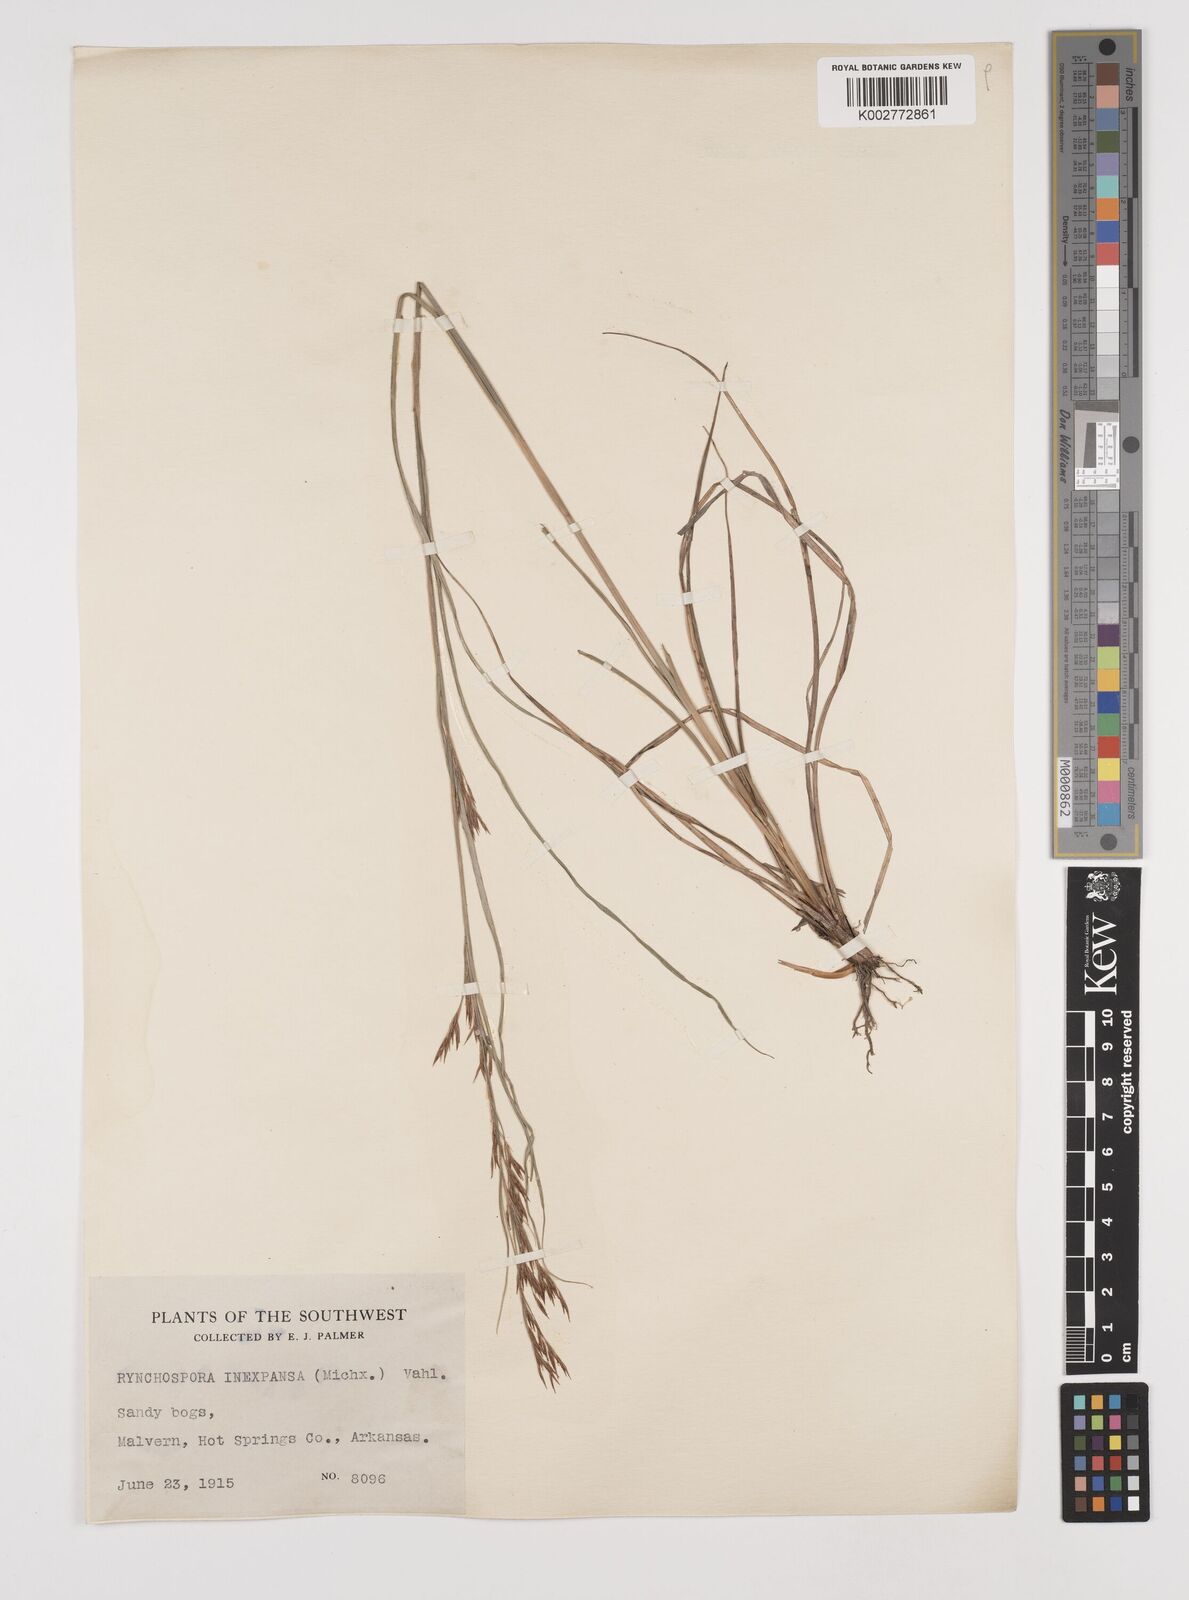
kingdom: Plantae
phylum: Tracheophyta
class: Liliopsida
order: Poales
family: Cyperaceae
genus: Rhynchospora
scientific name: Rhynchospora inexpansa
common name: Nodding beaksedge
